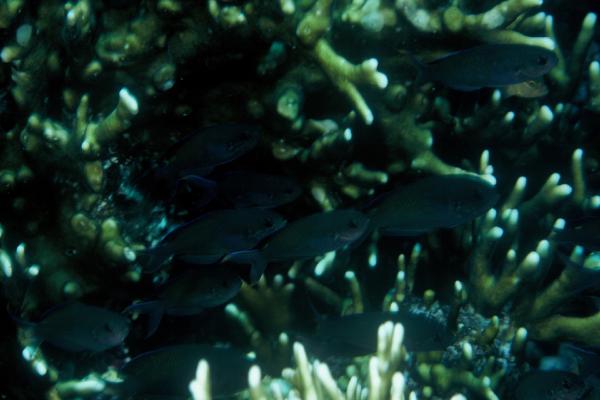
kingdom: Animalia
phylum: Chordata
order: Perciformes
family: Pomacentridae
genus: Lepidozygus
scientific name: Lepidozygus tapeinosoma
